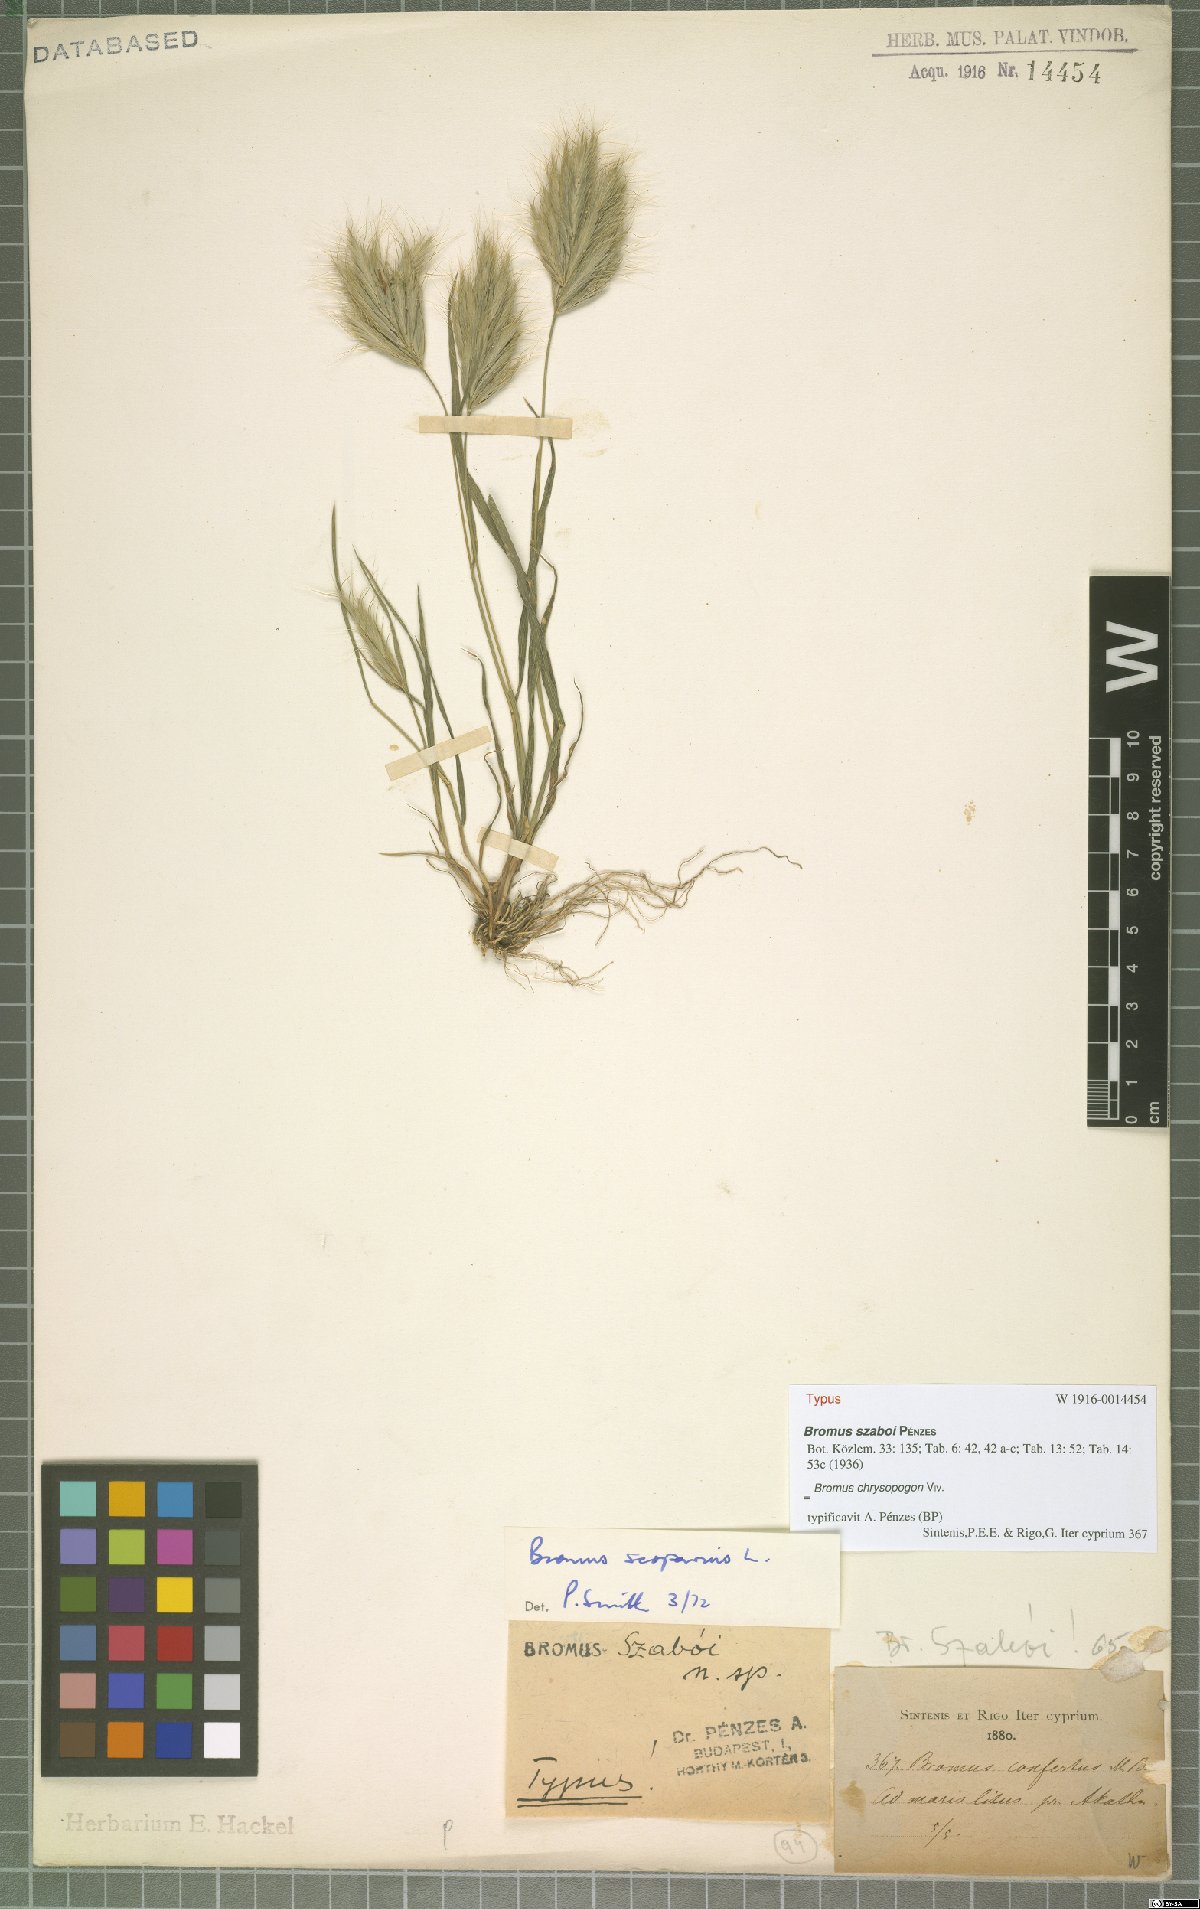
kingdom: Plantae
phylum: Tracheophyta
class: Liliopsida
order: Poales
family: Poaceae
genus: Bromus
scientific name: Bromus chrysopogon
